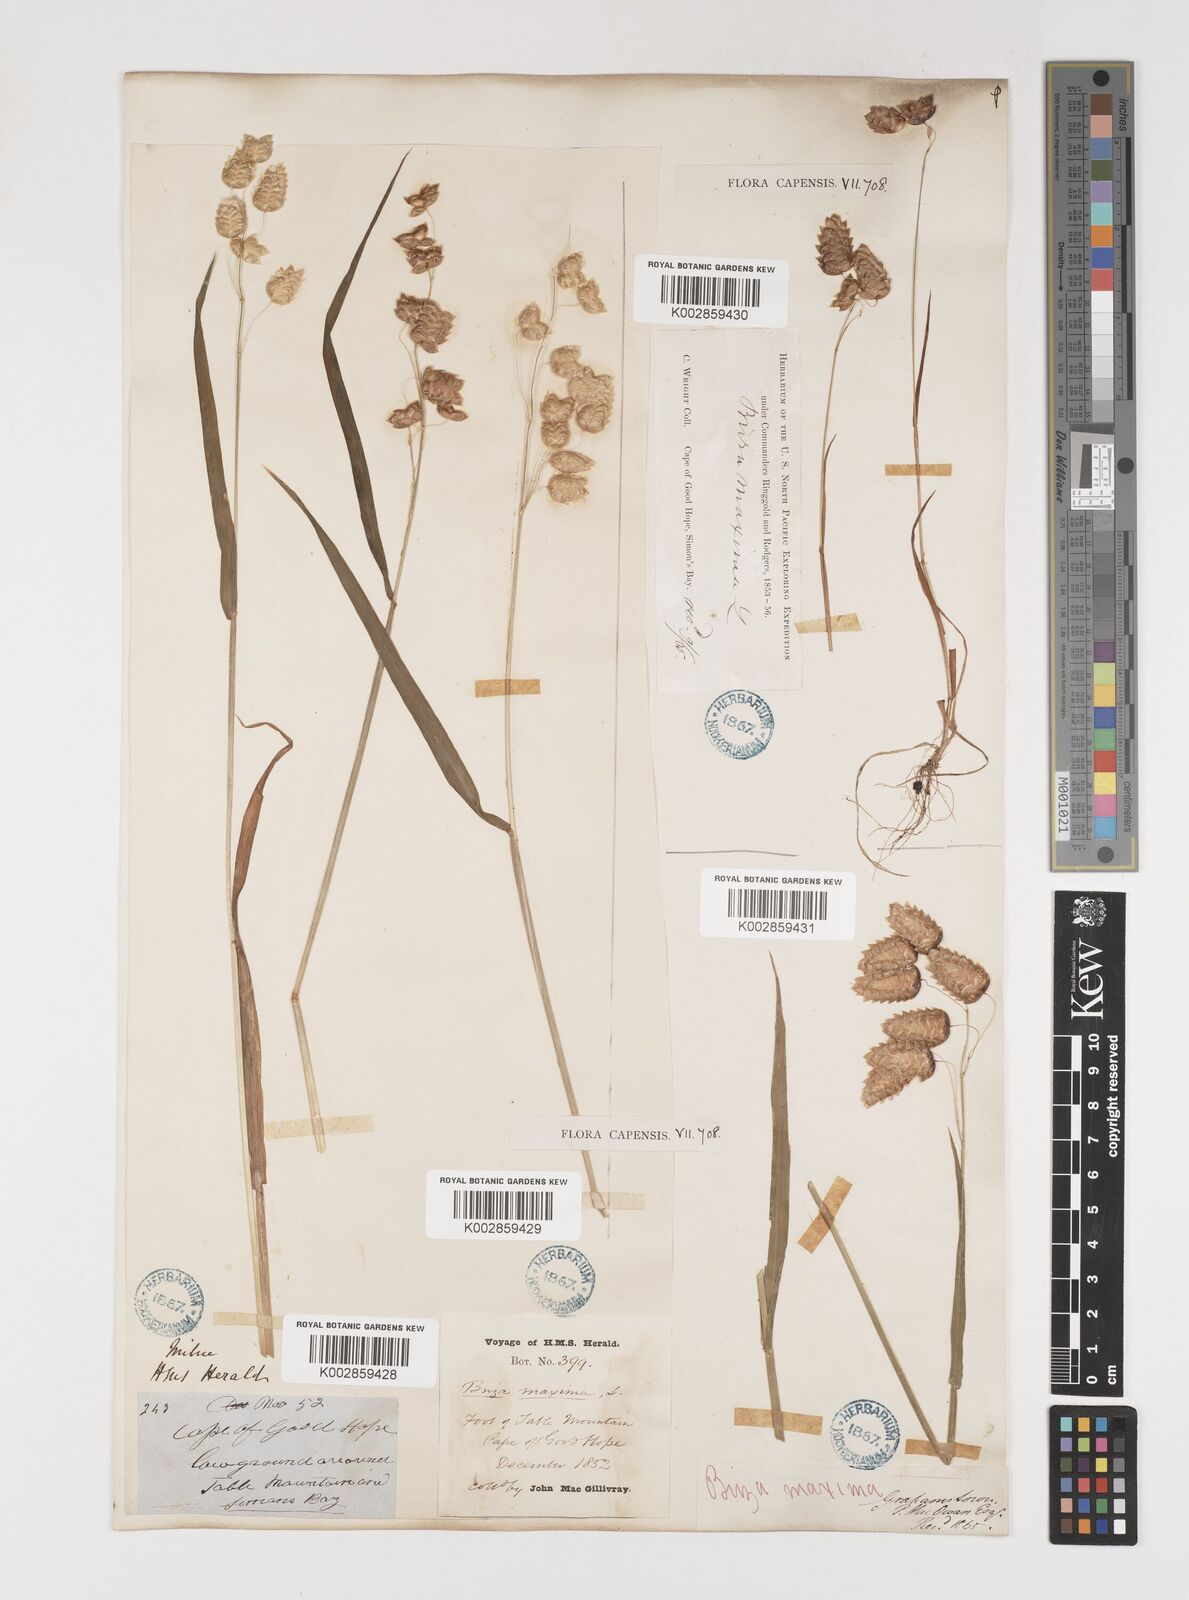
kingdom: Plantae
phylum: Tracheophyta
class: Liliopsida
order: Poales
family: Poaceae
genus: Briza
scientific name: Briza maxima
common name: Big quakinggrass
